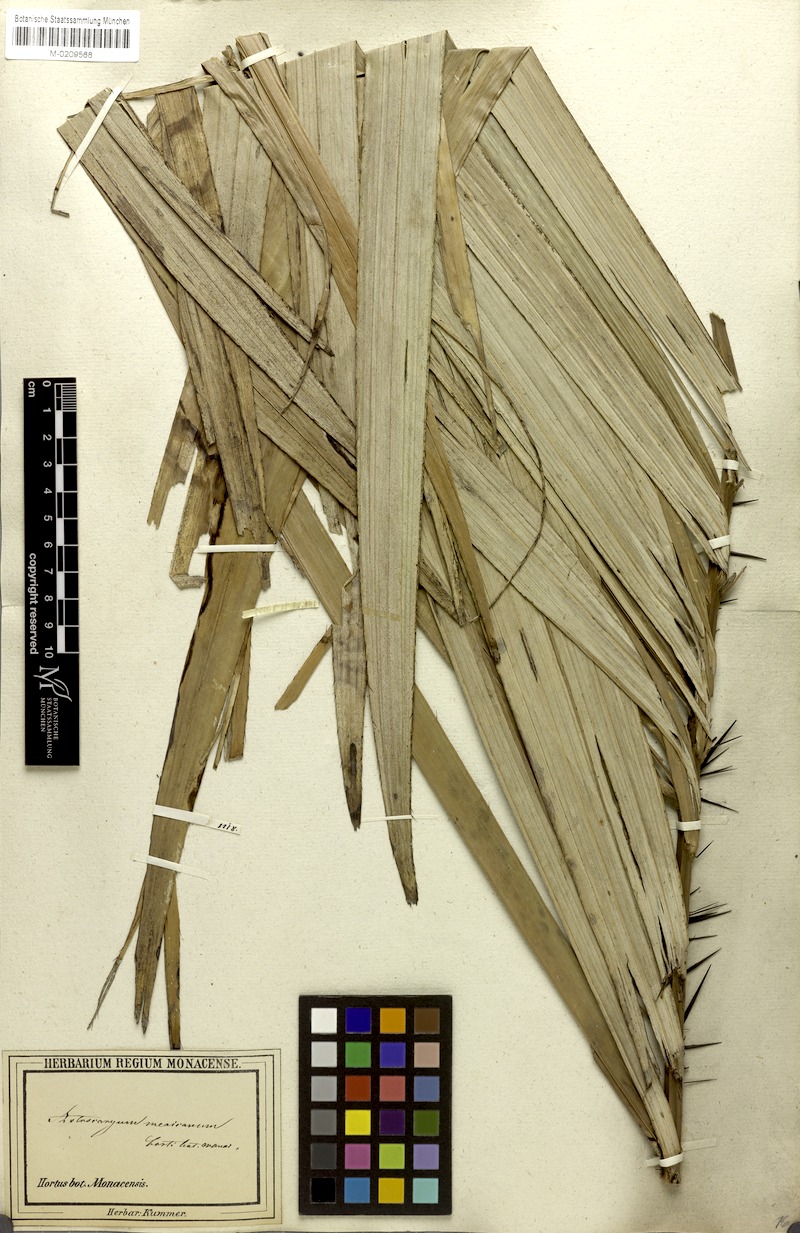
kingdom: Plantae
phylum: Tracheophyta
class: Liliopsida
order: Arecales
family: Arecaceae
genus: Astrocaryum
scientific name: Astrocaryum mexicanum
